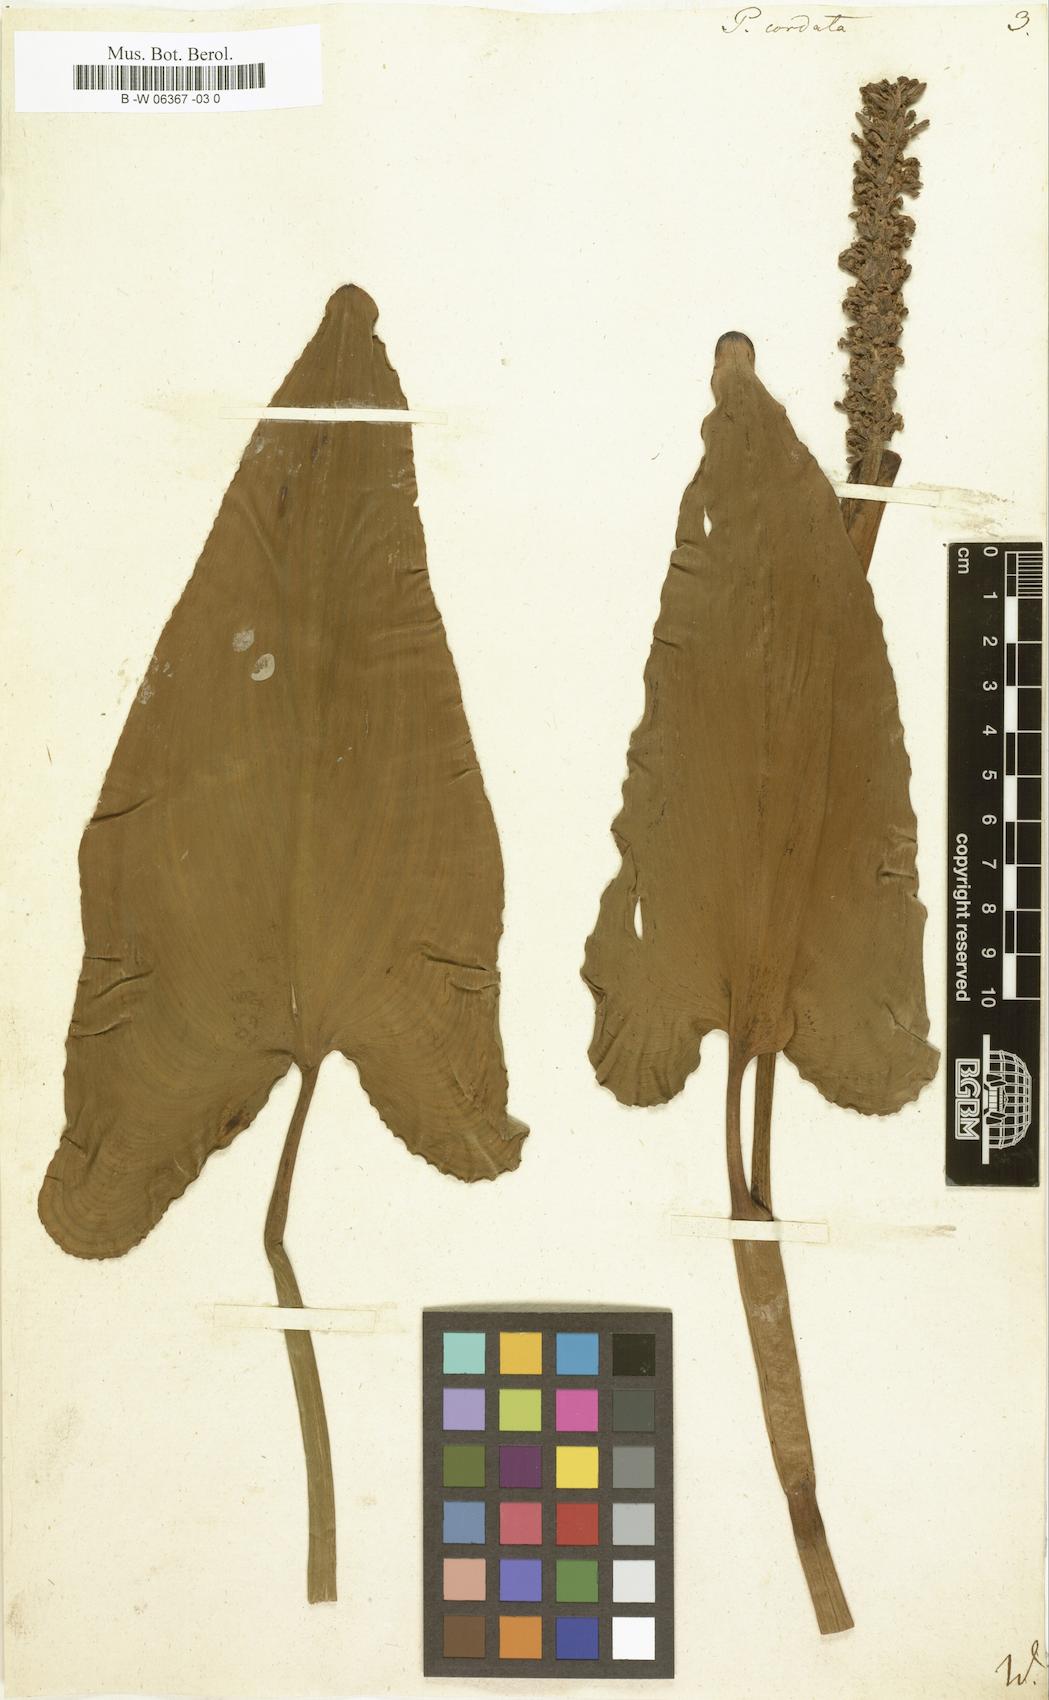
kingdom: Plantae
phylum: Tracheophyta
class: Liliopsida
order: Commelinales
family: Pontederiaceae
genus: Pontederia
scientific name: Pontederia cordata
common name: Pickerelweed
